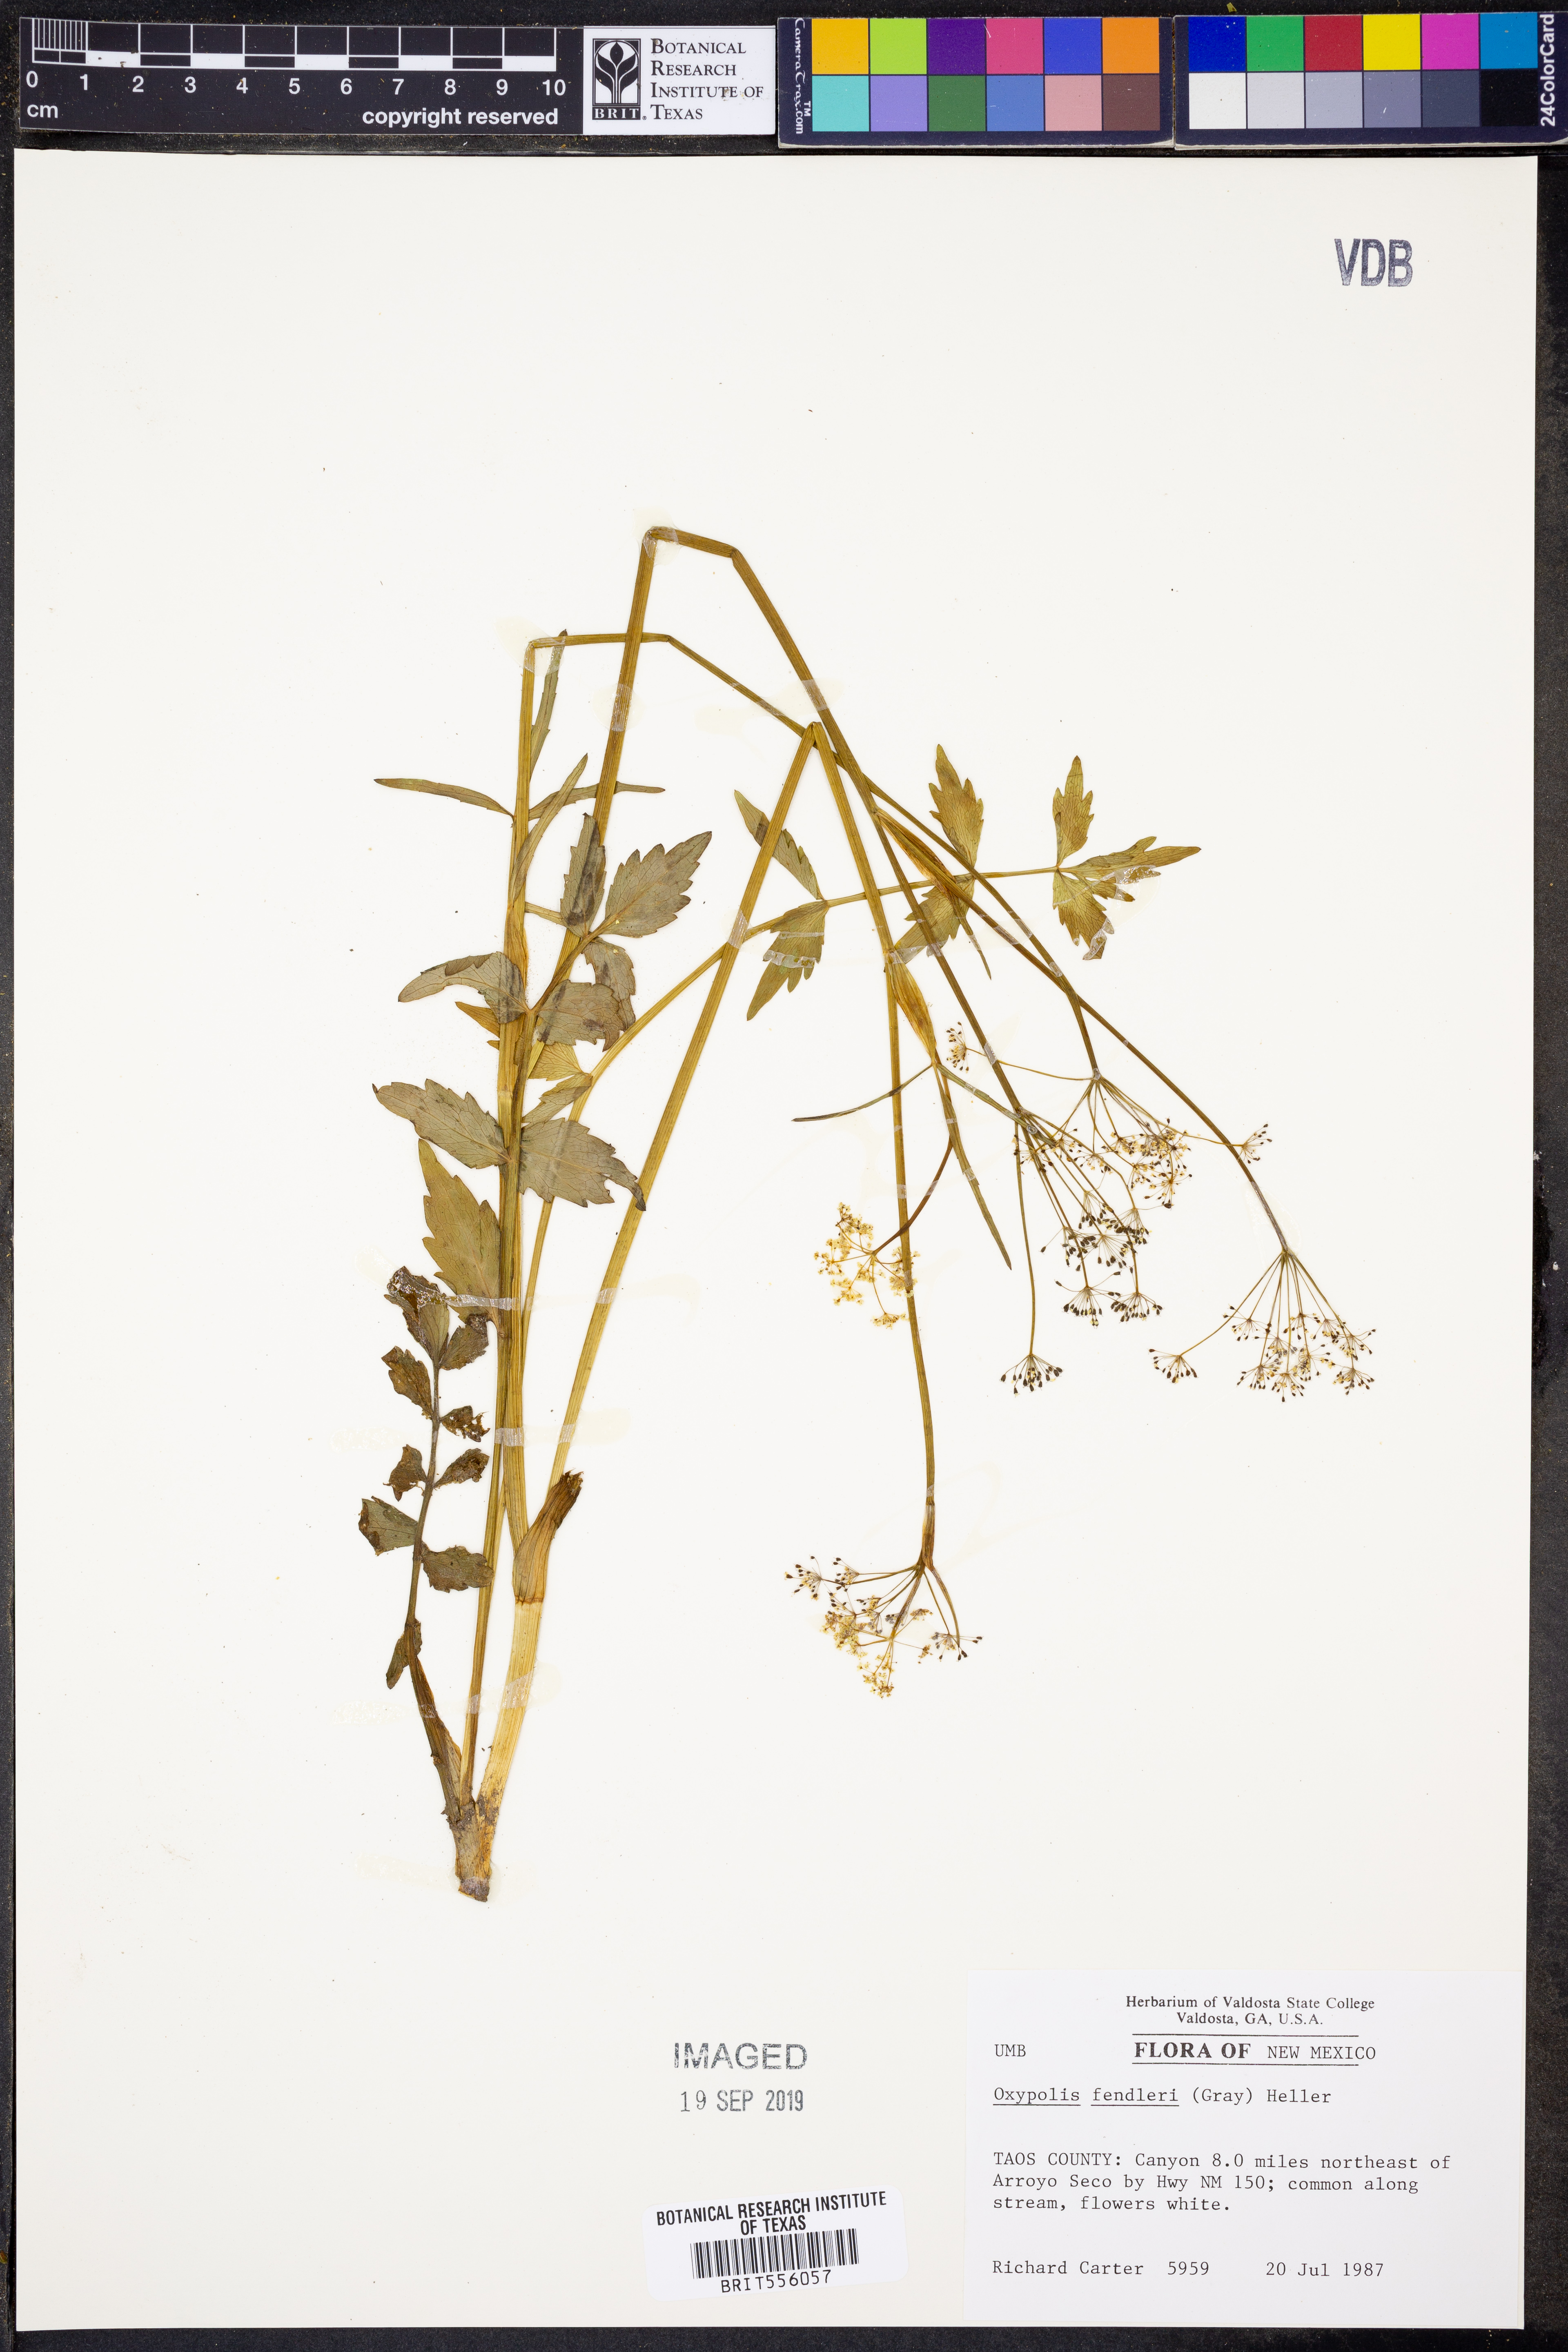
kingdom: Plantae
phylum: Tracheophyta
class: Magnoliopsida
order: Apiales
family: Apiaceae
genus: Oxypolis
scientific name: Oxypolis fendleri
